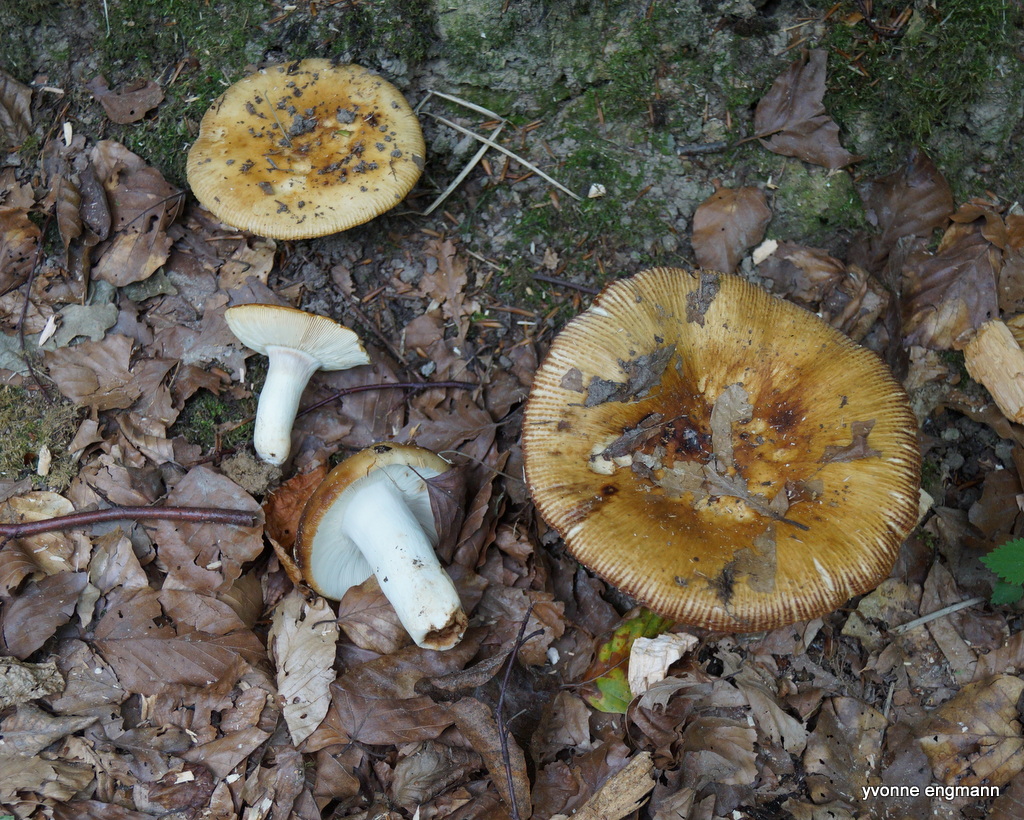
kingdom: Fungi
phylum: Basidiomycota
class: Agaricomycetes
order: Russulales
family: Russulaceae
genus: Russula
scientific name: Russula grata
